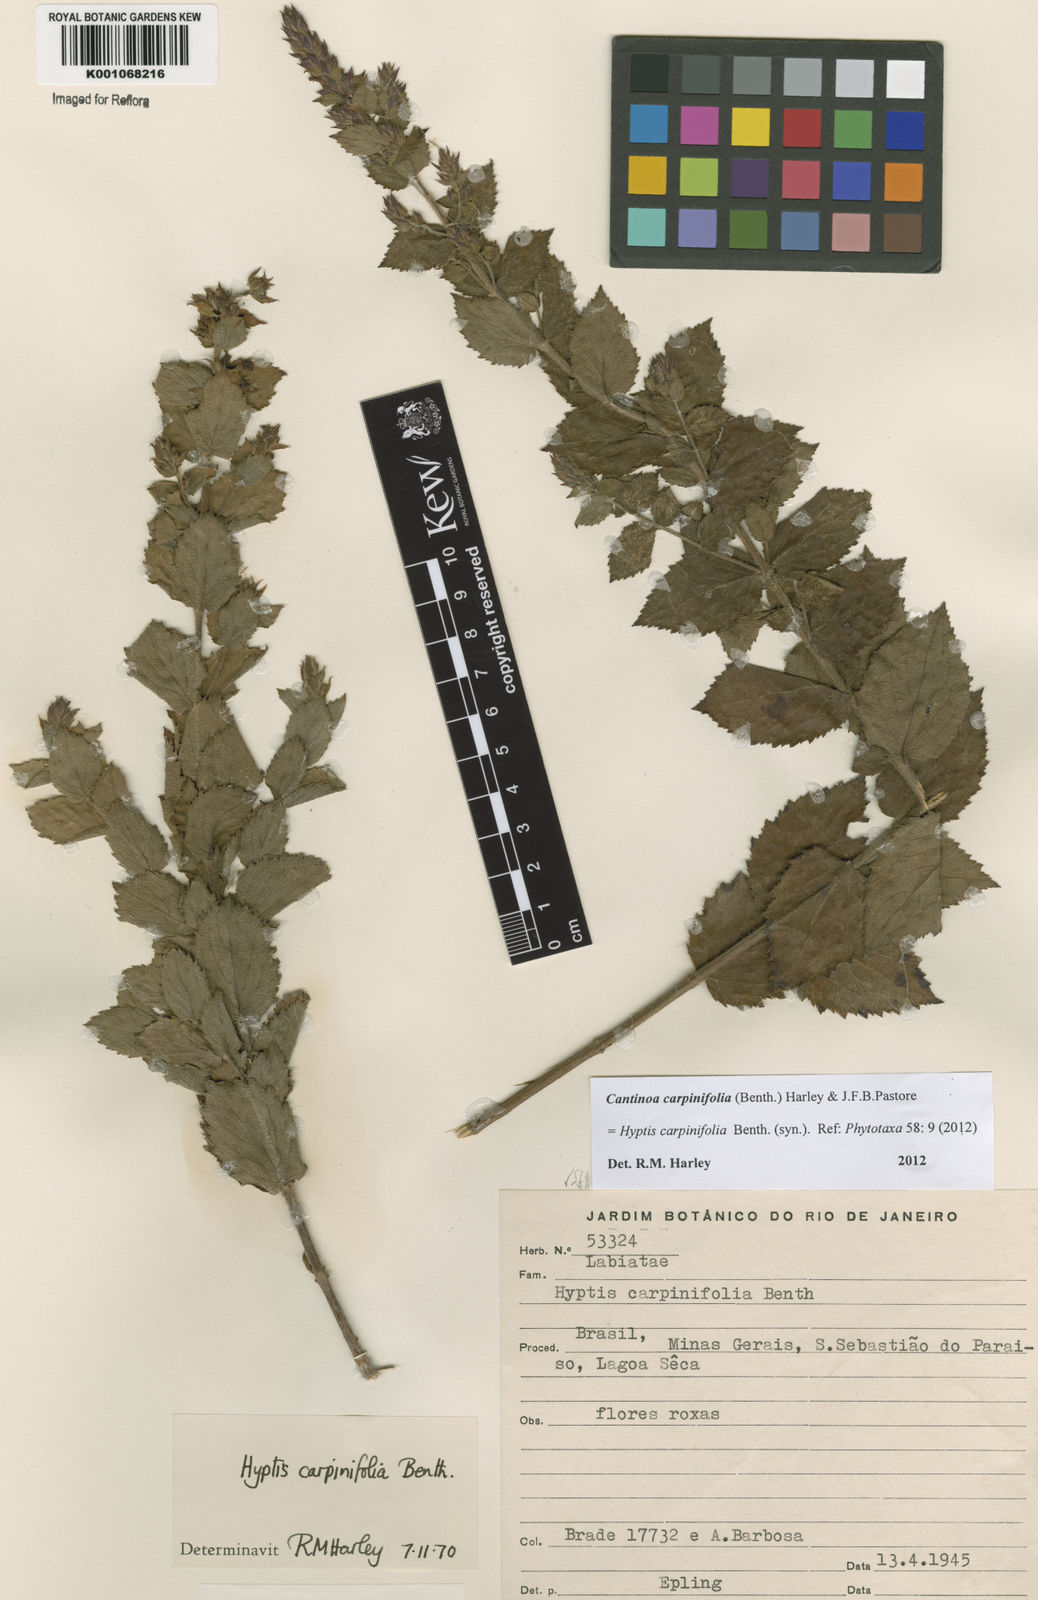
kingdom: Plantae
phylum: Tracheophyta
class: Magnoliopsida
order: Lamiales
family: Lamiaceae
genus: Cantinoa
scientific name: Cantinoa carpinifolia
